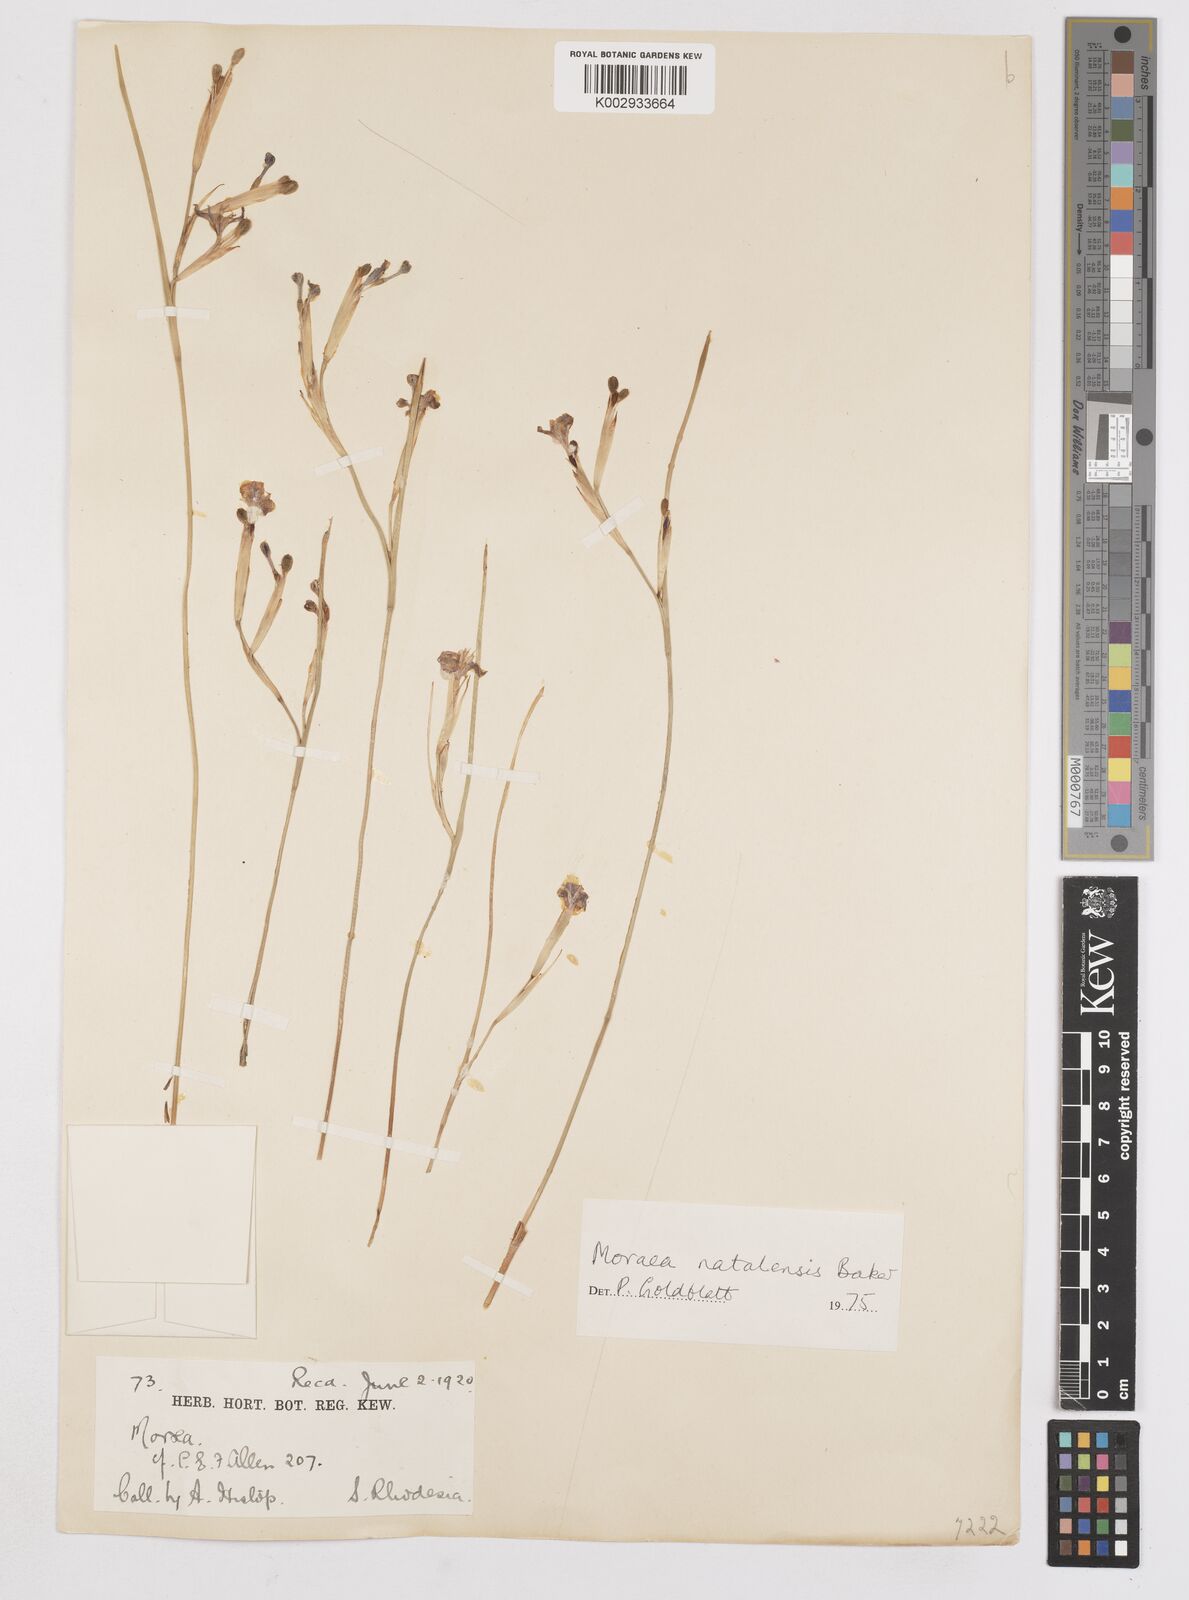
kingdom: Plantae
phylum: Tracheophyta
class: Liliopsida
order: Asparagales
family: Iridaceae
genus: Moraea
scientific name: Moraea natalensis
